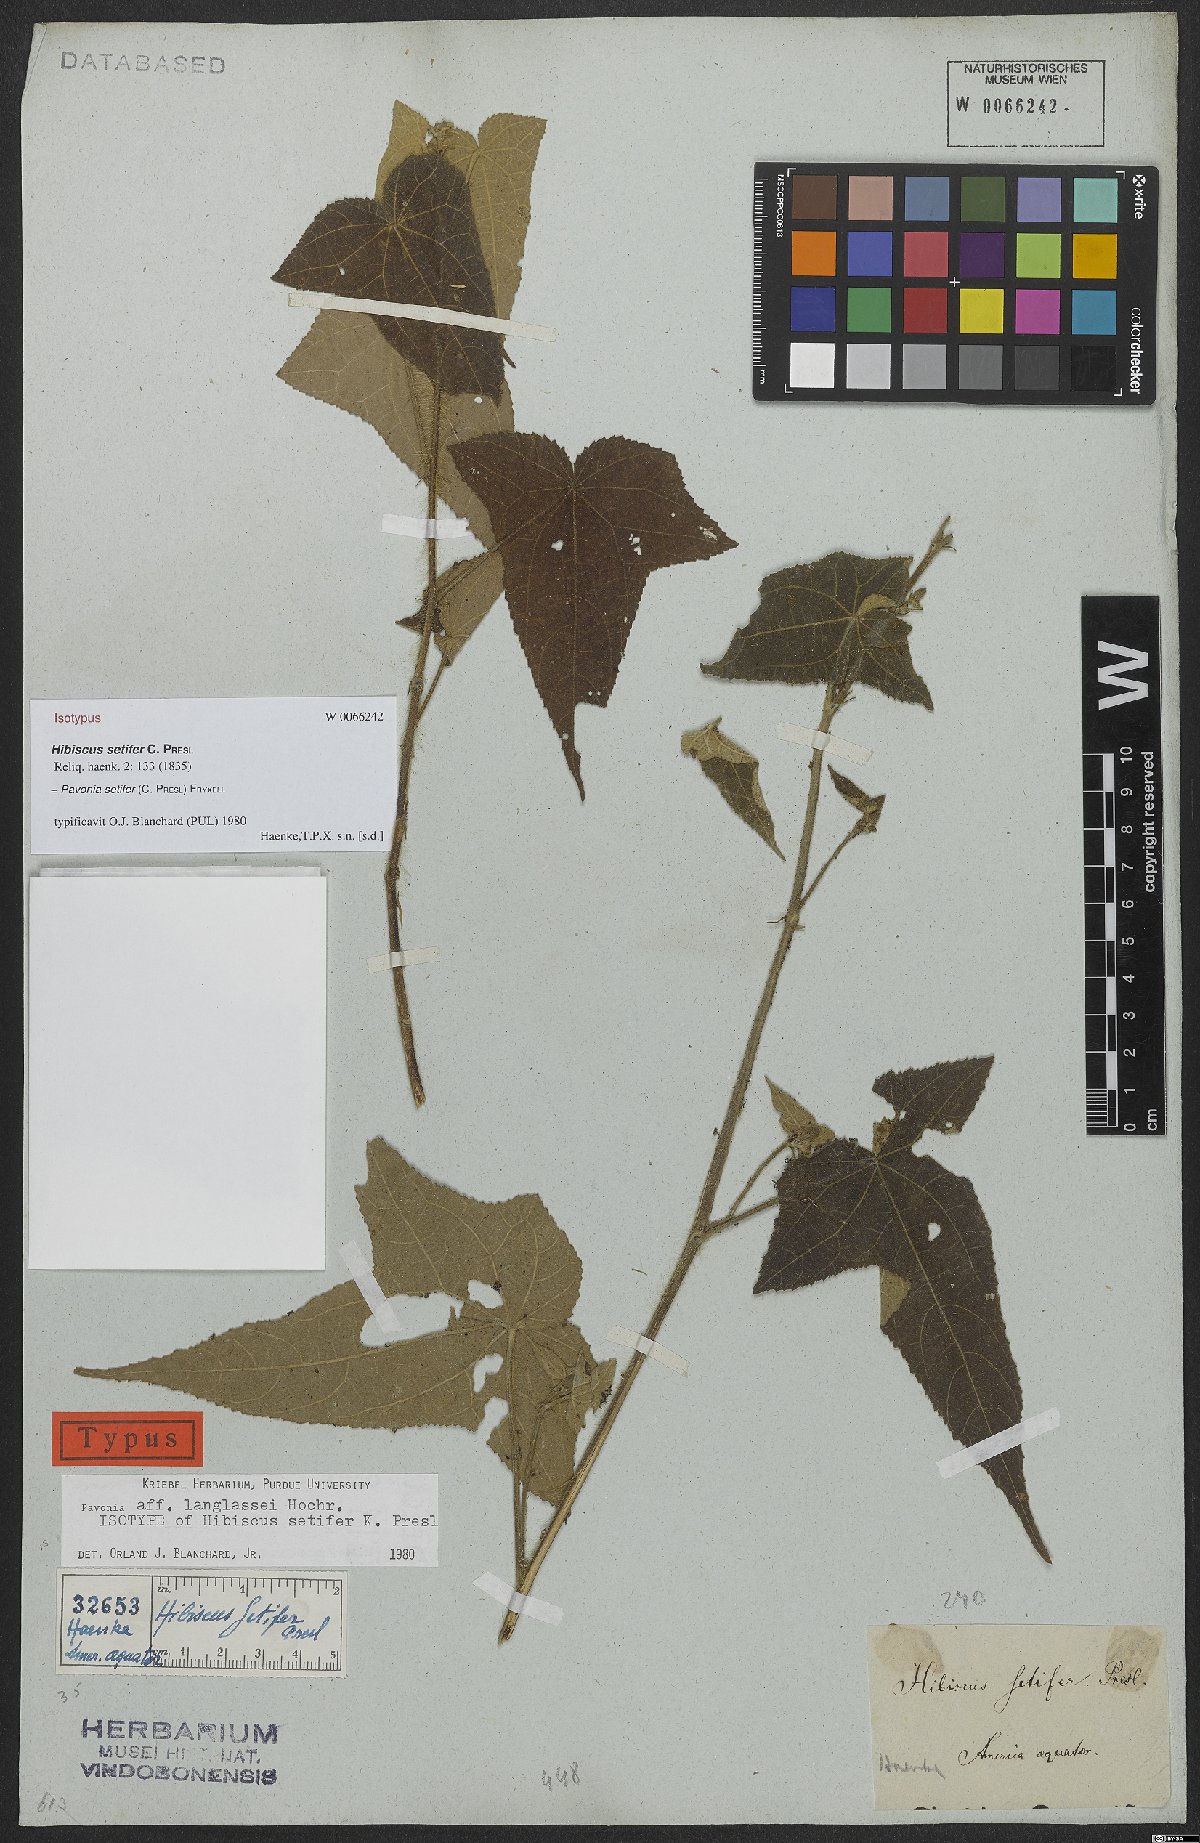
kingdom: Plantae
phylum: Tracheophyta
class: Magnoliopsida
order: Malvales
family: Malvaceae
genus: Pavonia
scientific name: Pavonia setifer
